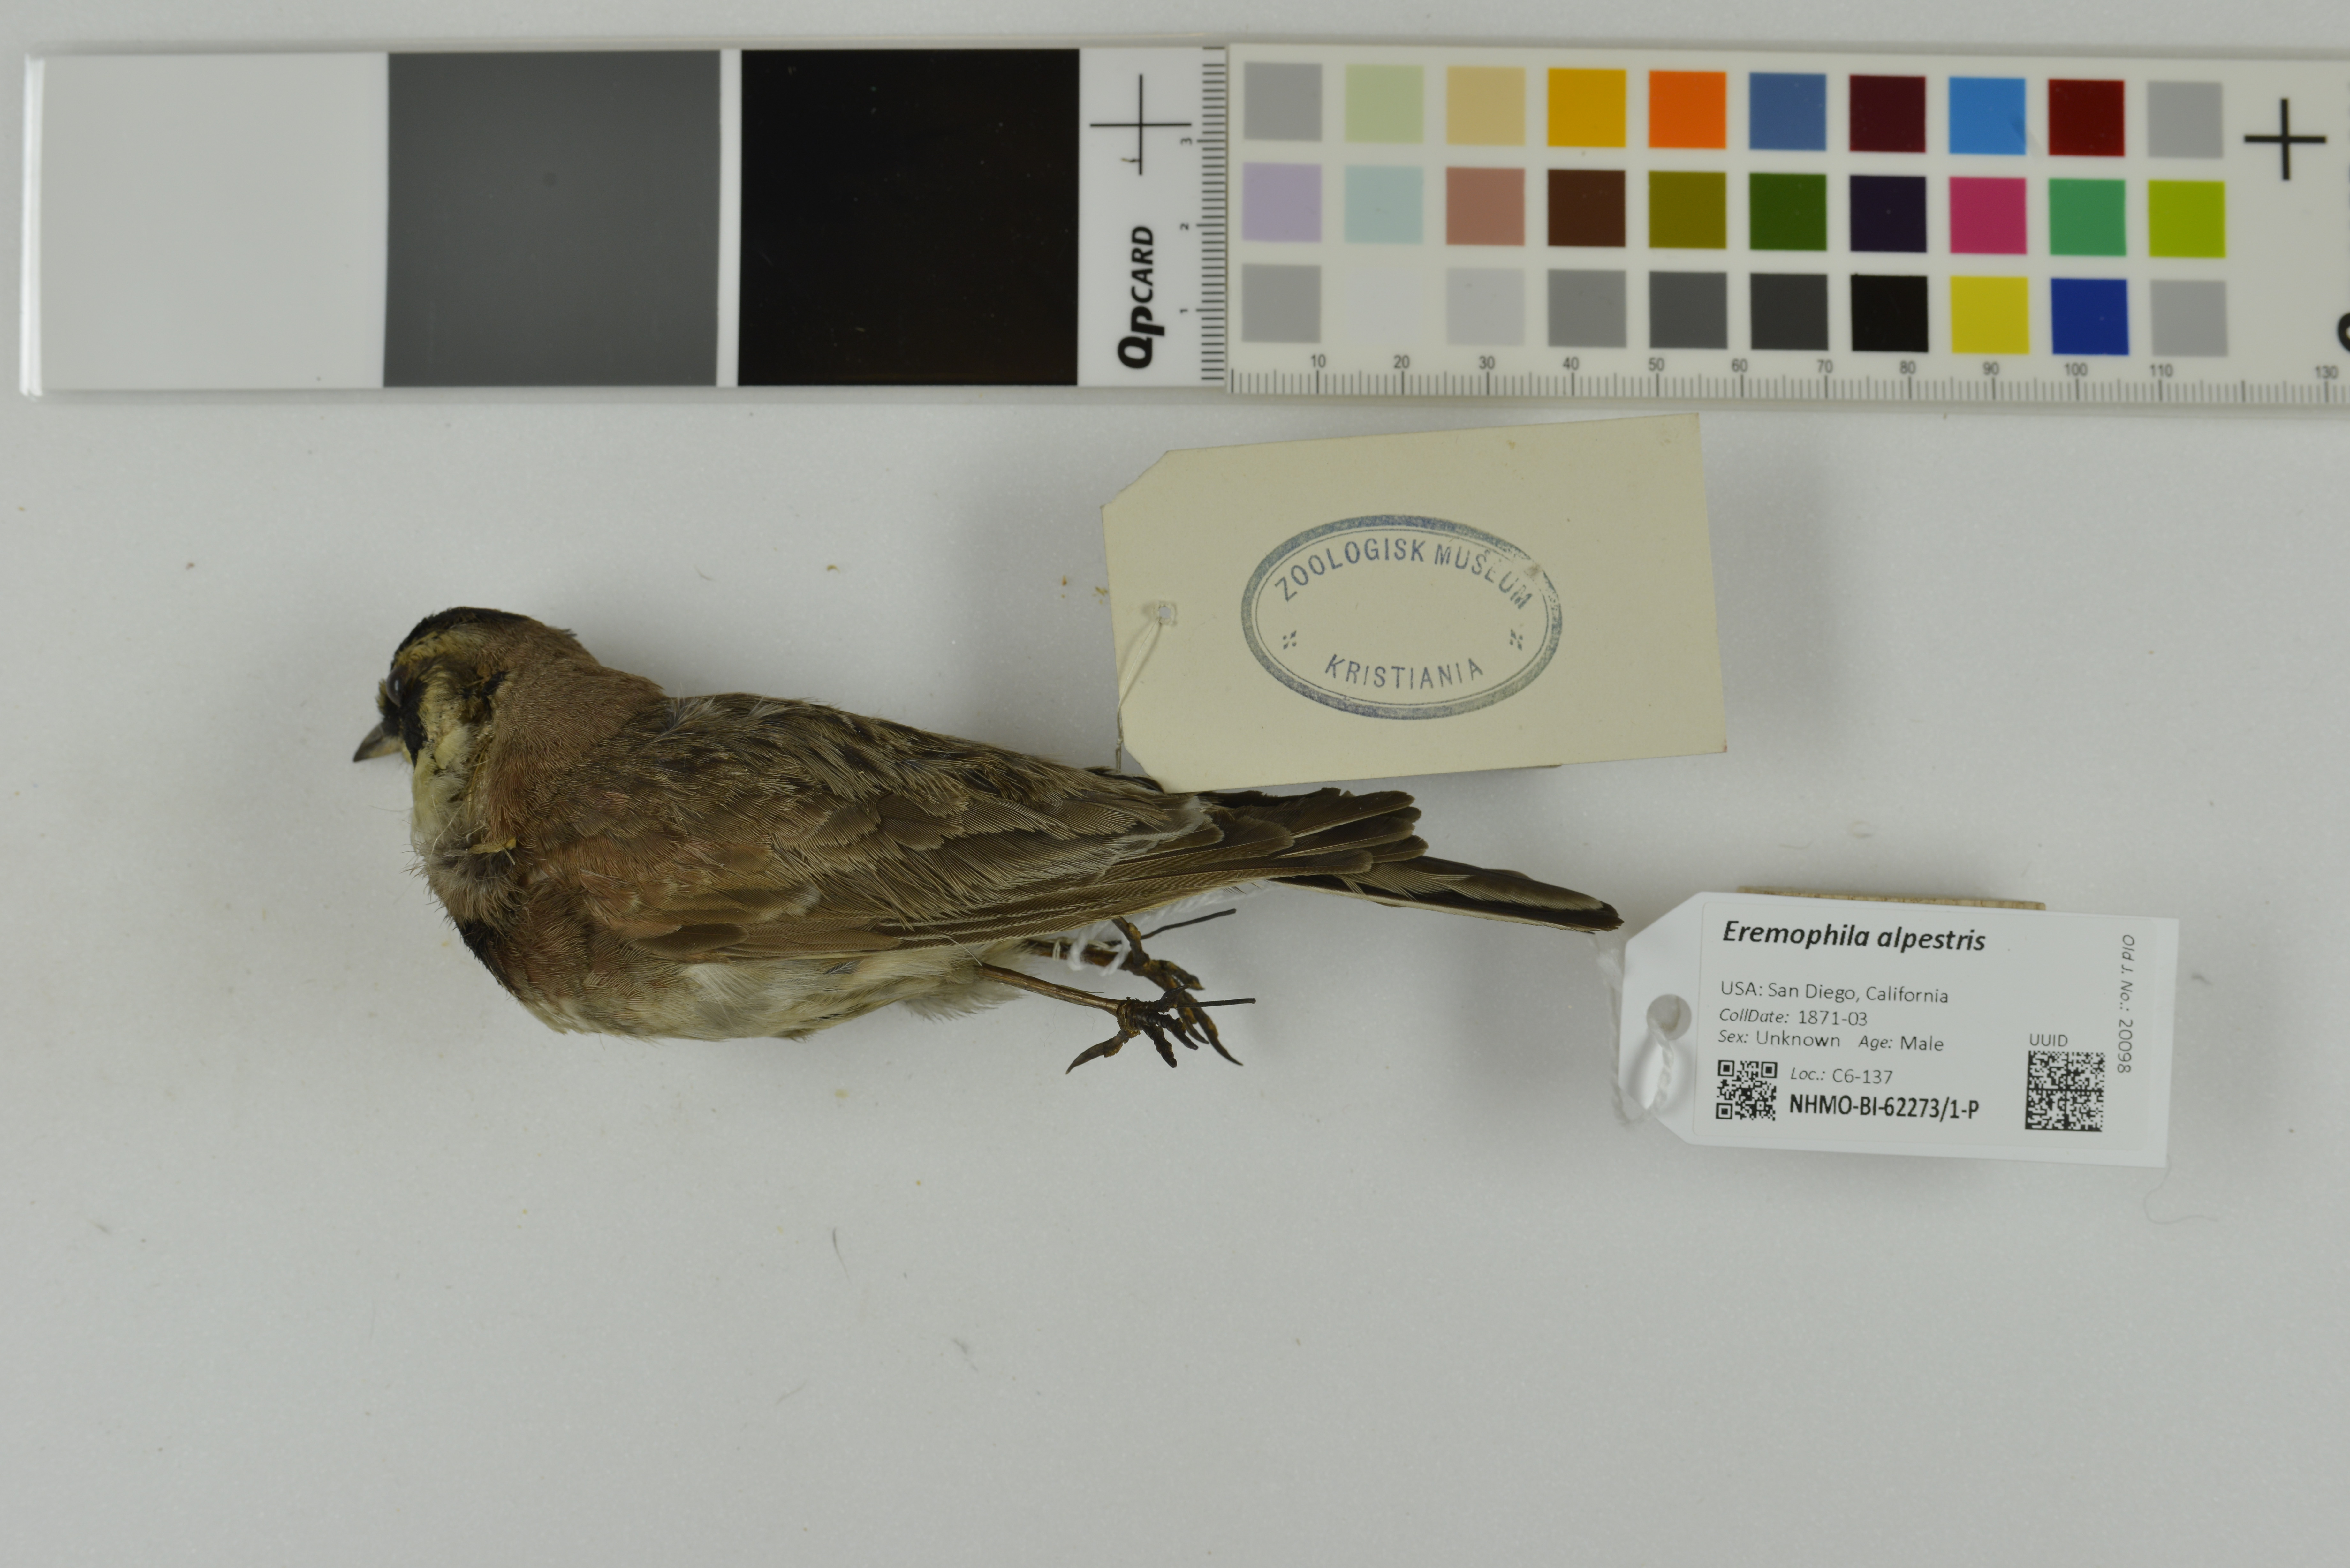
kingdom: Animalia
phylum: Chordata
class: Aves
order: Passeriformes
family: Alaudidae
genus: Eremophila
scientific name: Eremophila alpestris
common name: Horned lark
